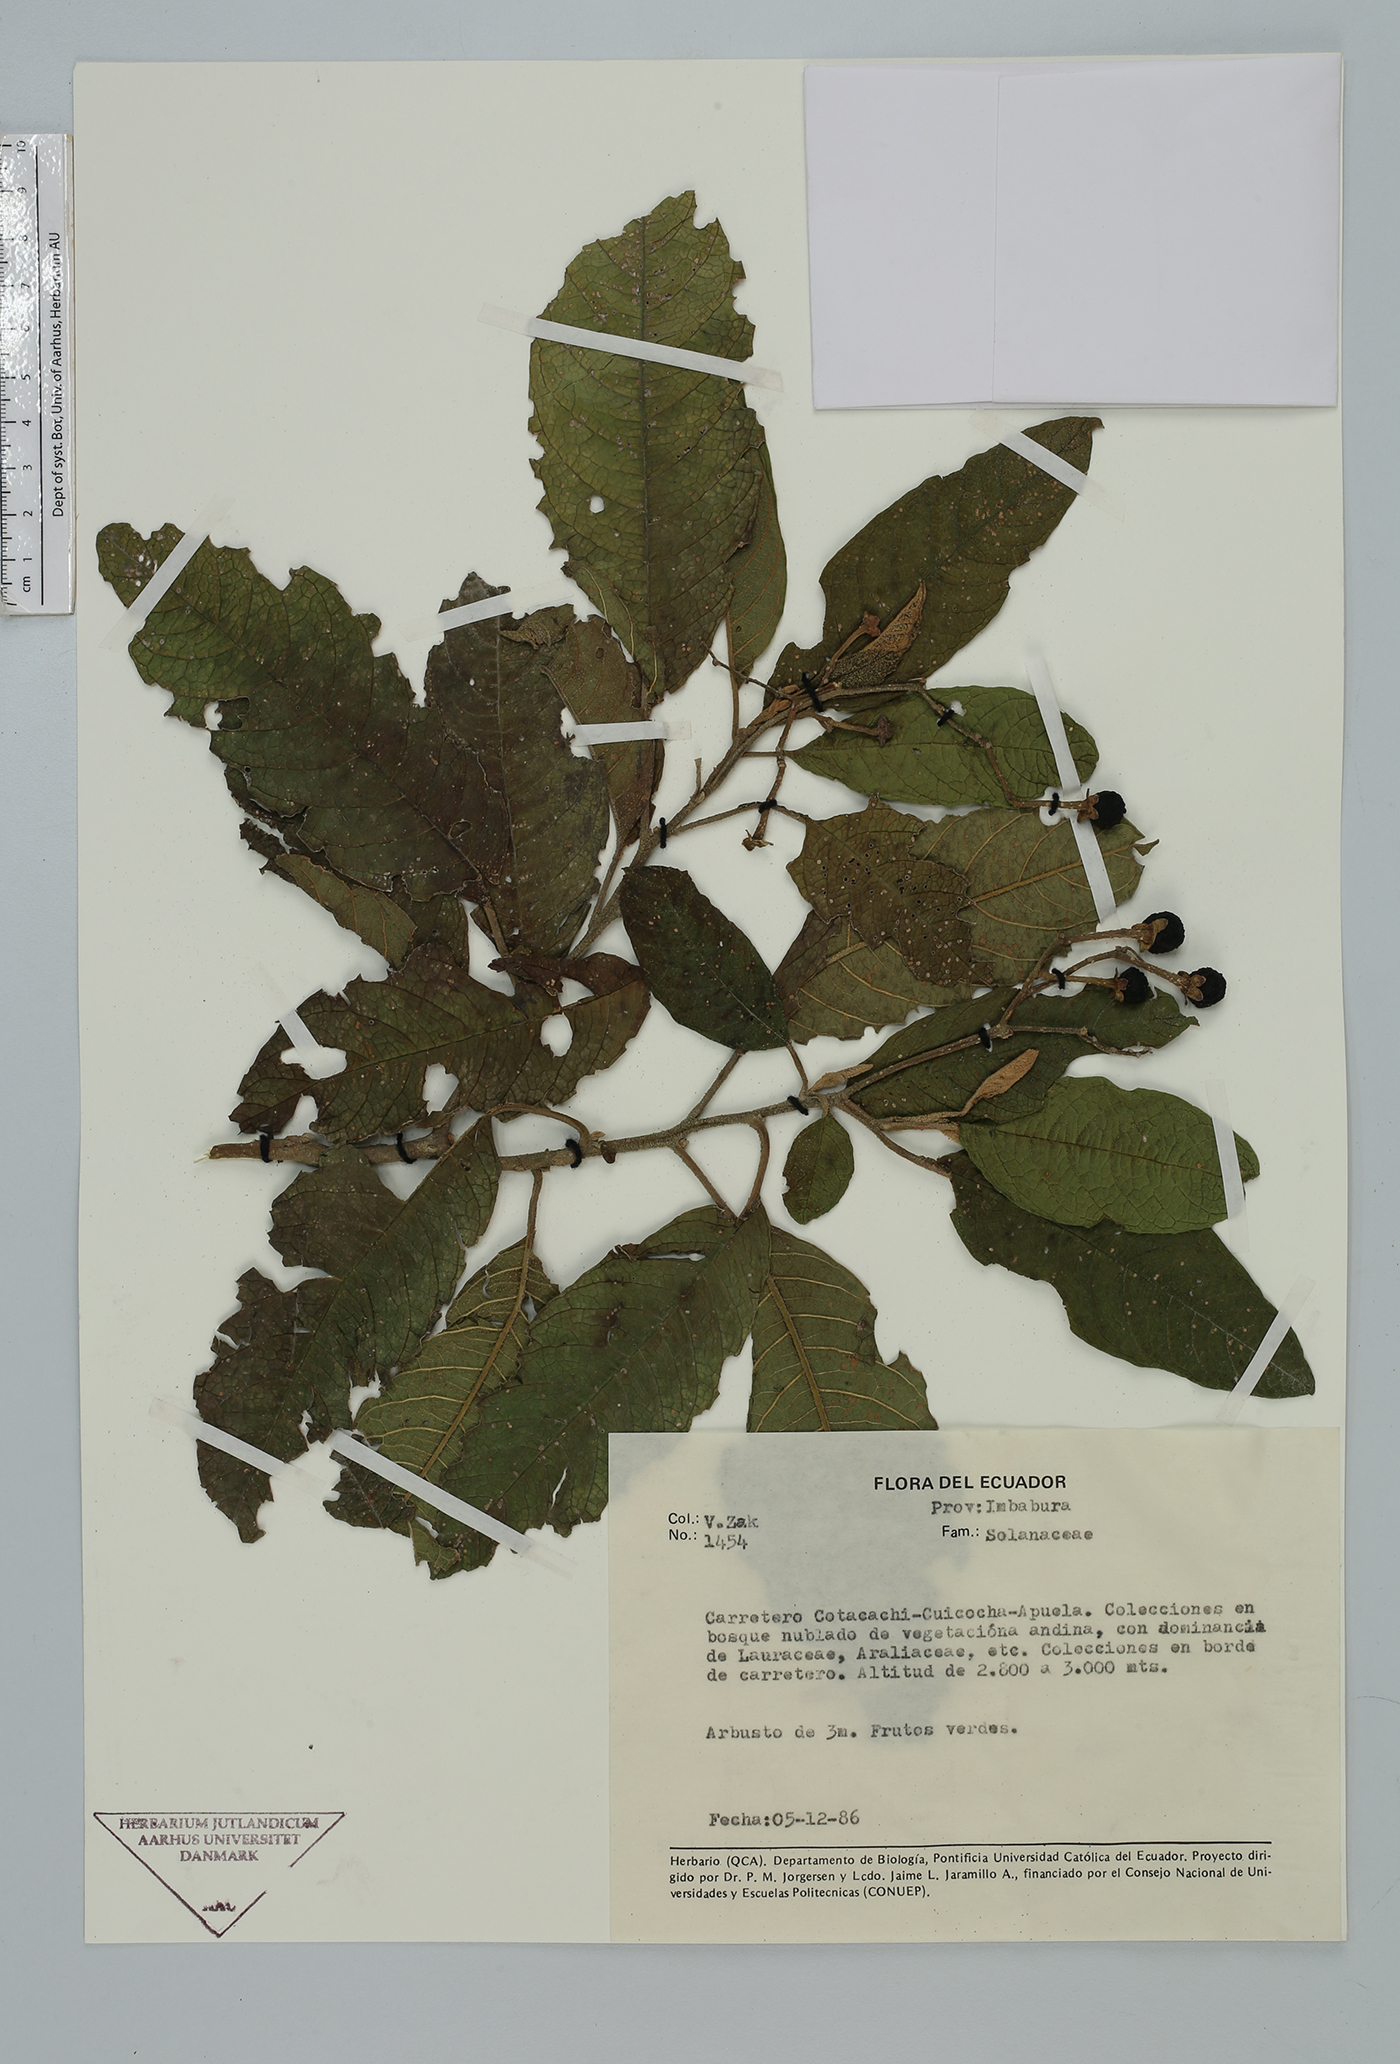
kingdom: Plantae
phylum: Tracheophyta
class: Magnoliopsida
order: Solanales
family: Solanaceae
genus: Solanum
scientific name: Solanum
